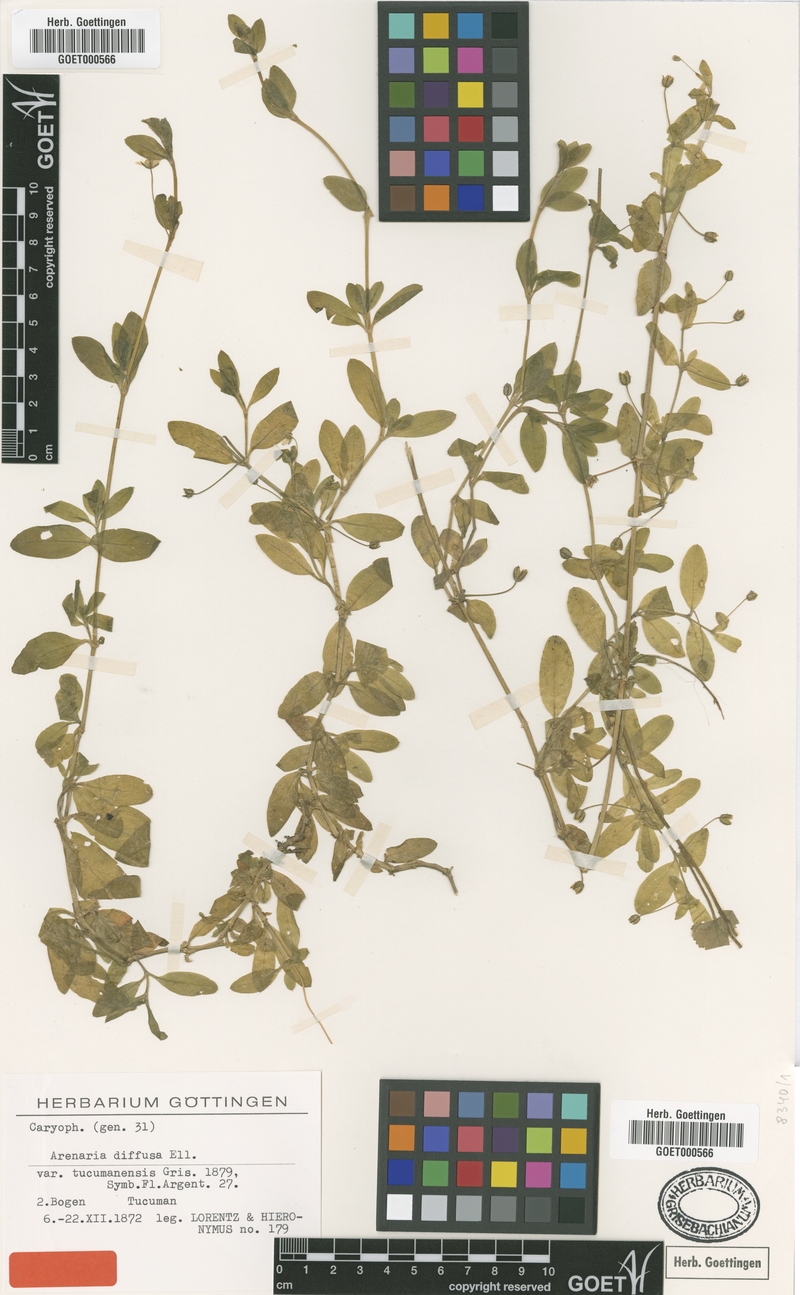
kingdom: Plantae
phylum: Tracheophyta
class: Magnoliopsida
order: Caryophyllales
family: Caryophyllaceae
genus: Arenaria
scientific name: Arenaria lanuginosa
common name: Spread sandwort
